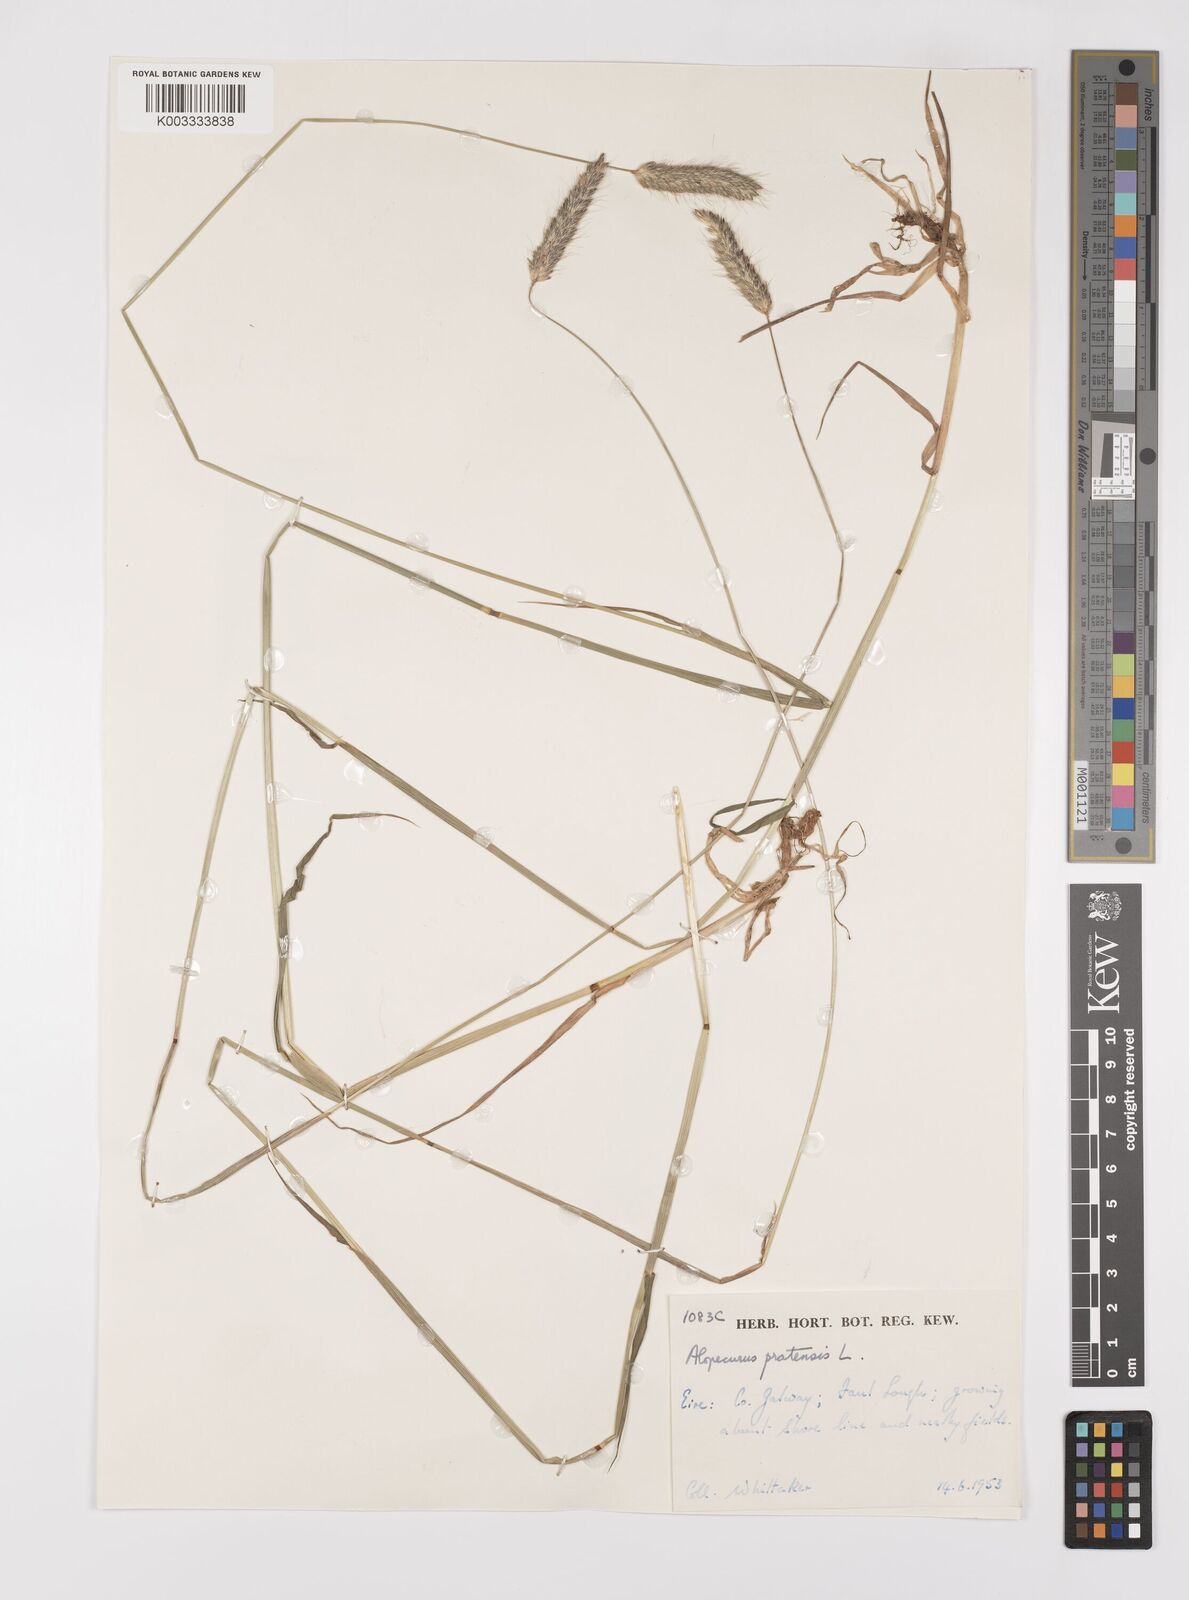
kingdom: Plantae
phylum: Tracheophyta
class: Liliopsida
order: Poales
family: Poaceae
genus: Alopecurus
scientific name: Alopecurus pratensis
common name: Meadow foxtail
